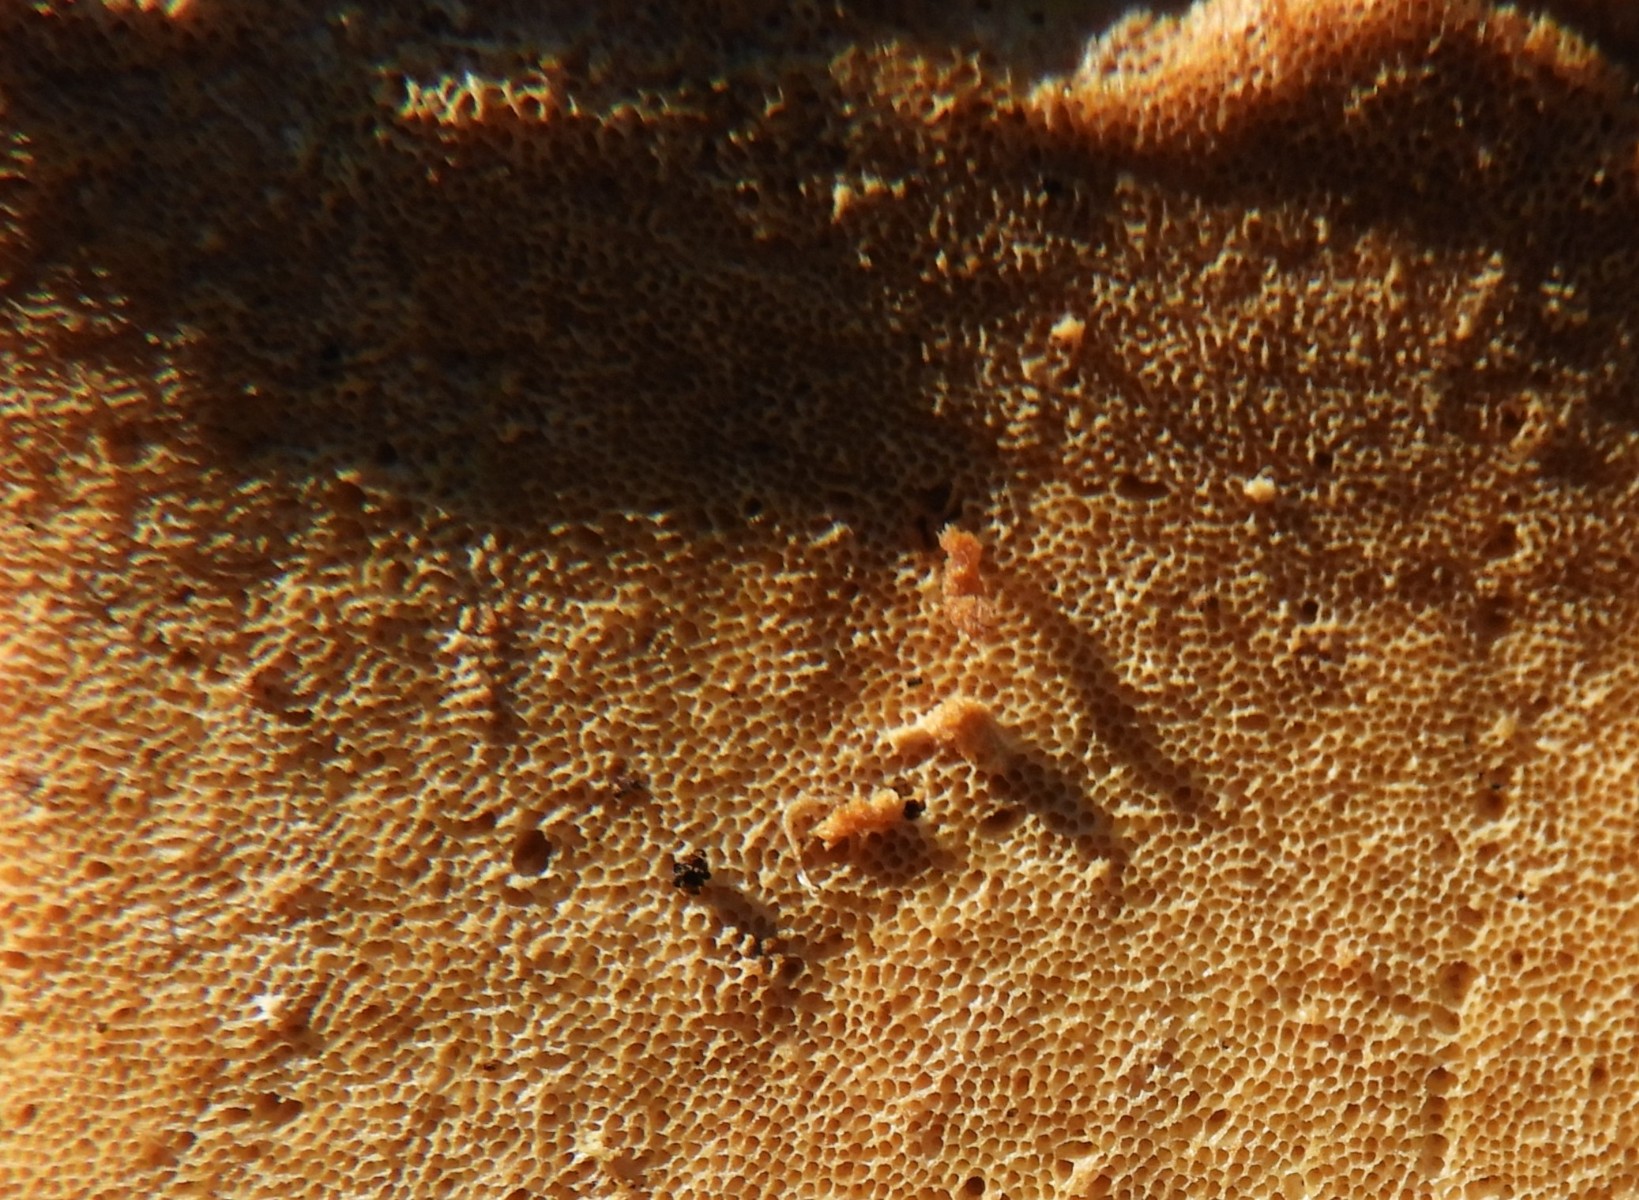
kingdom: Fungi
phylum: Basidiomycota
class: Agaricomycetes
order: Polyporales
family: Ischnodermataceae
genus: Ischnoderma
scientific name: Ischnoderma resinosum
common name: løv-tjæreporesvamp
